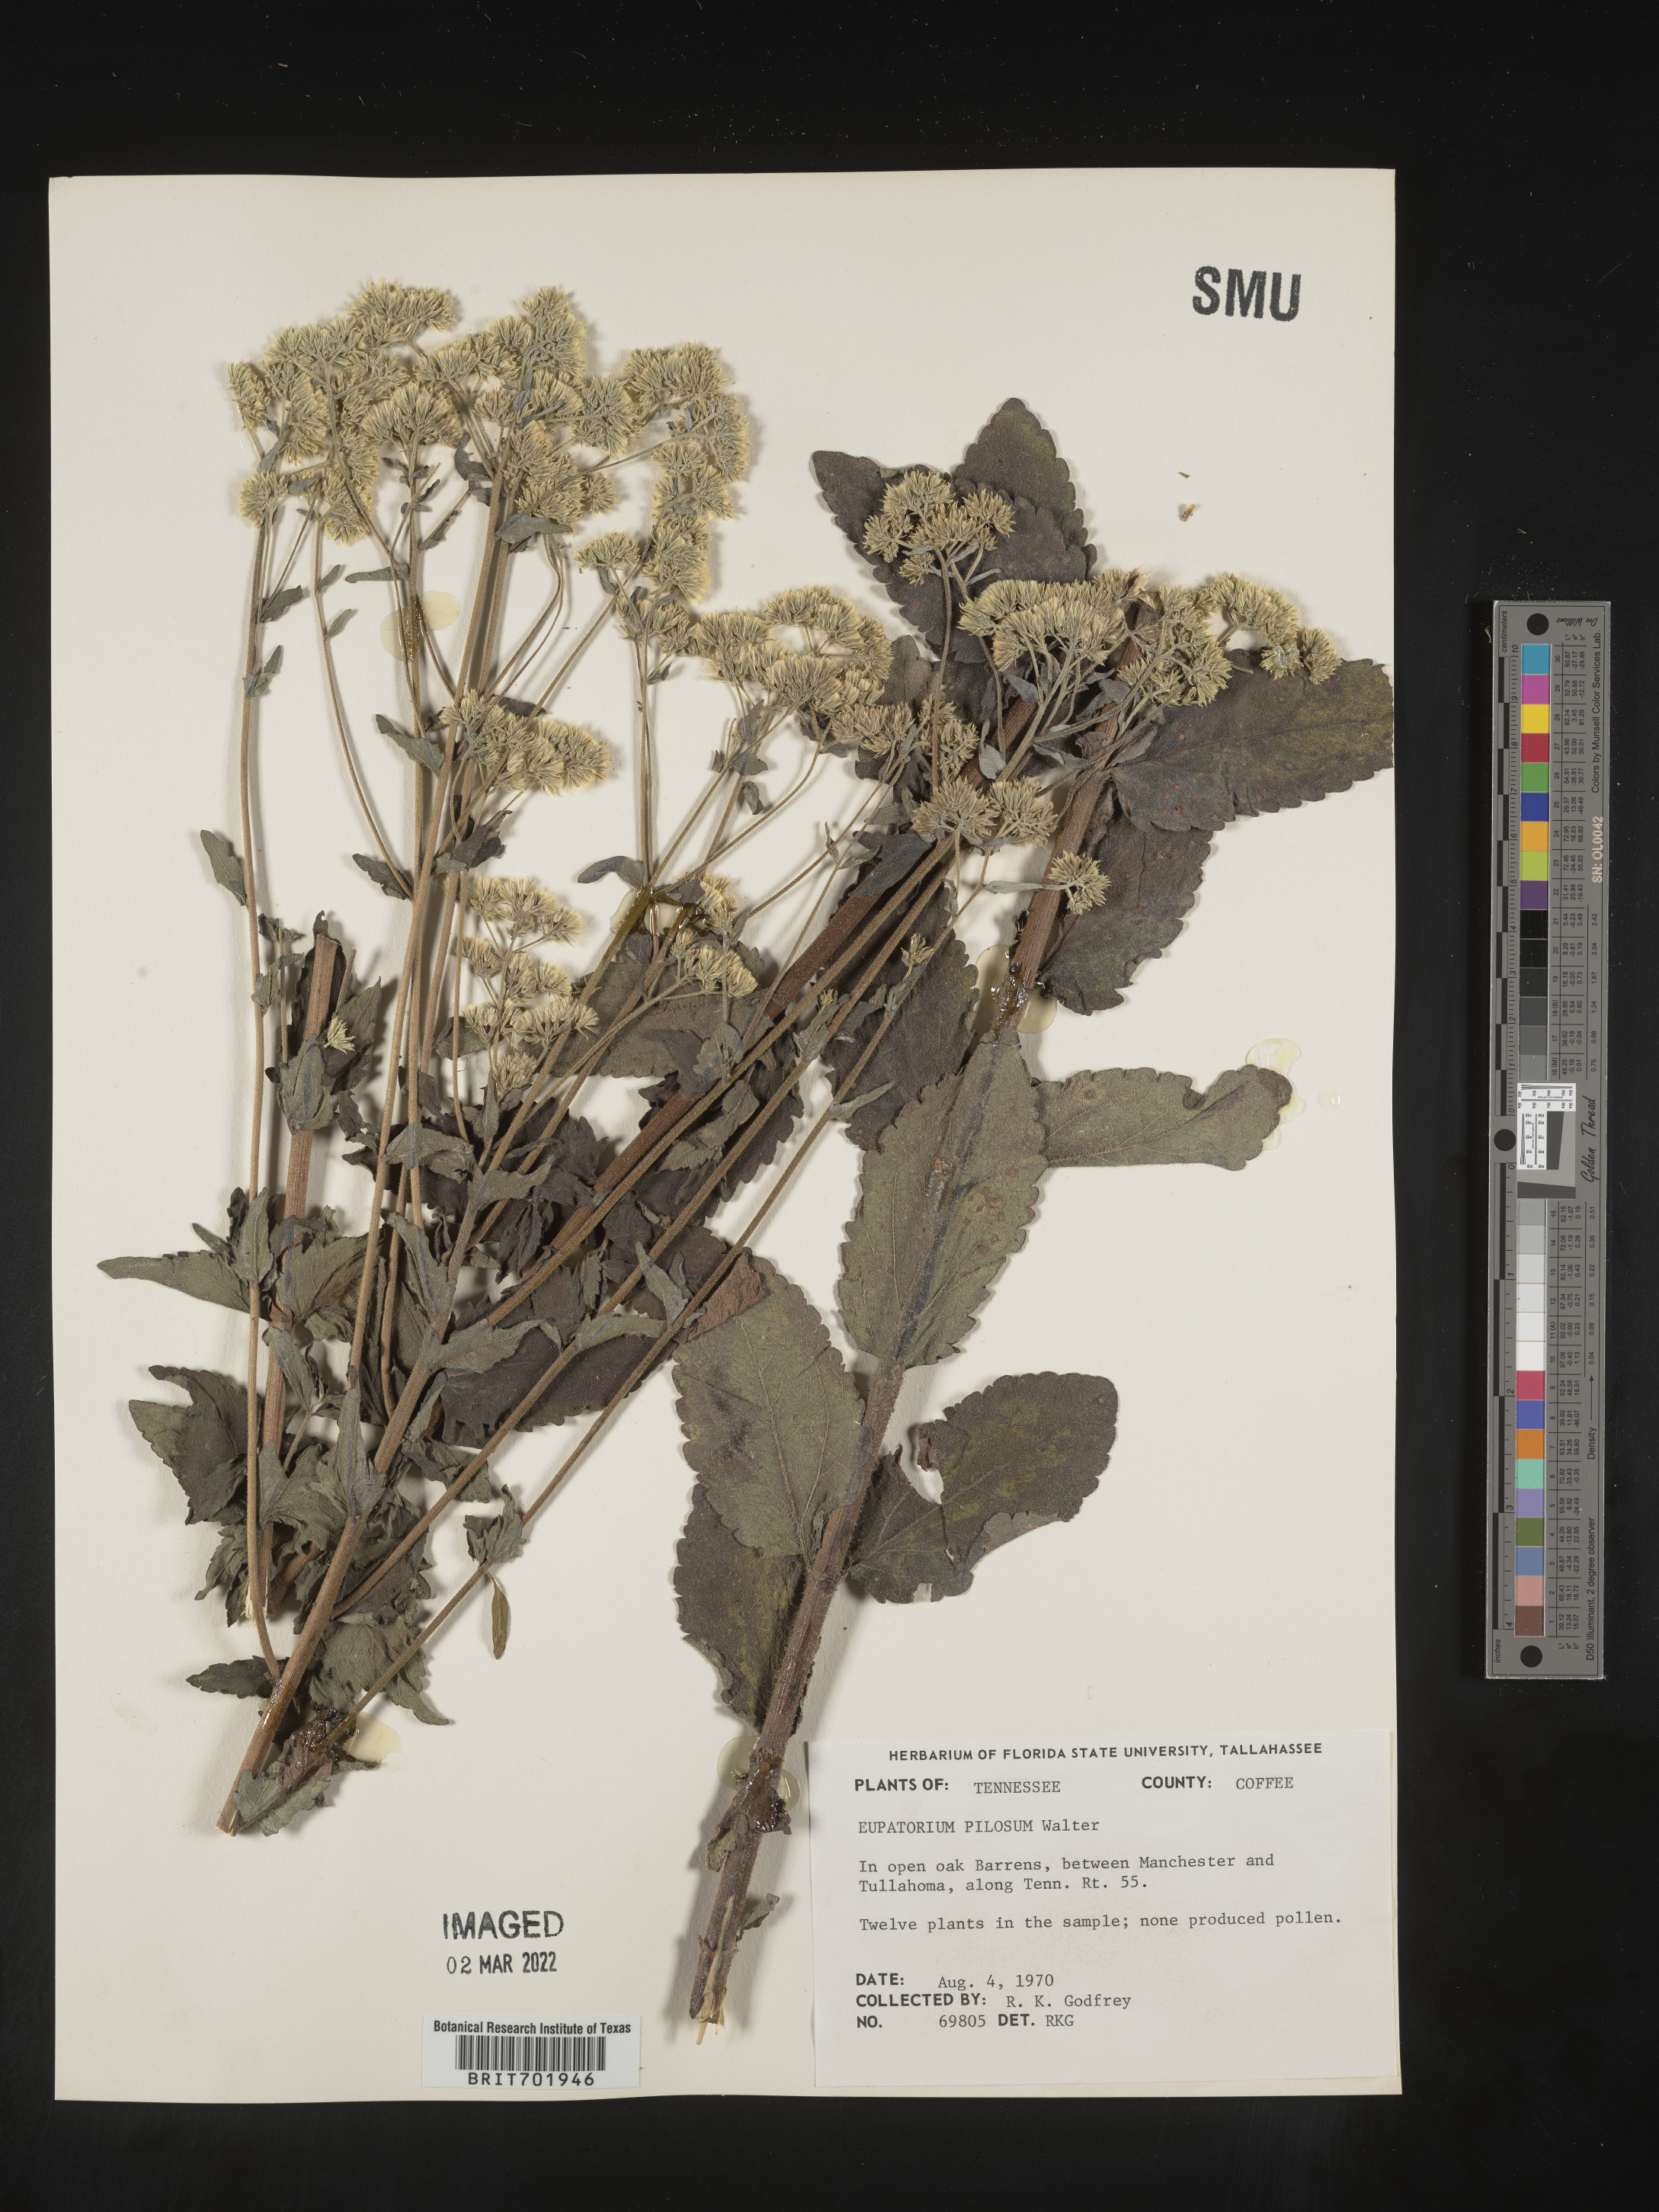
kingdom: Plantae
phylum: Tracheophyta
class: Magnoliopsida
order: Asterales
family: Asteraceae
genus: Eupatorium
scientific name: Eupatorium pilosum
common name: Rough boneset
